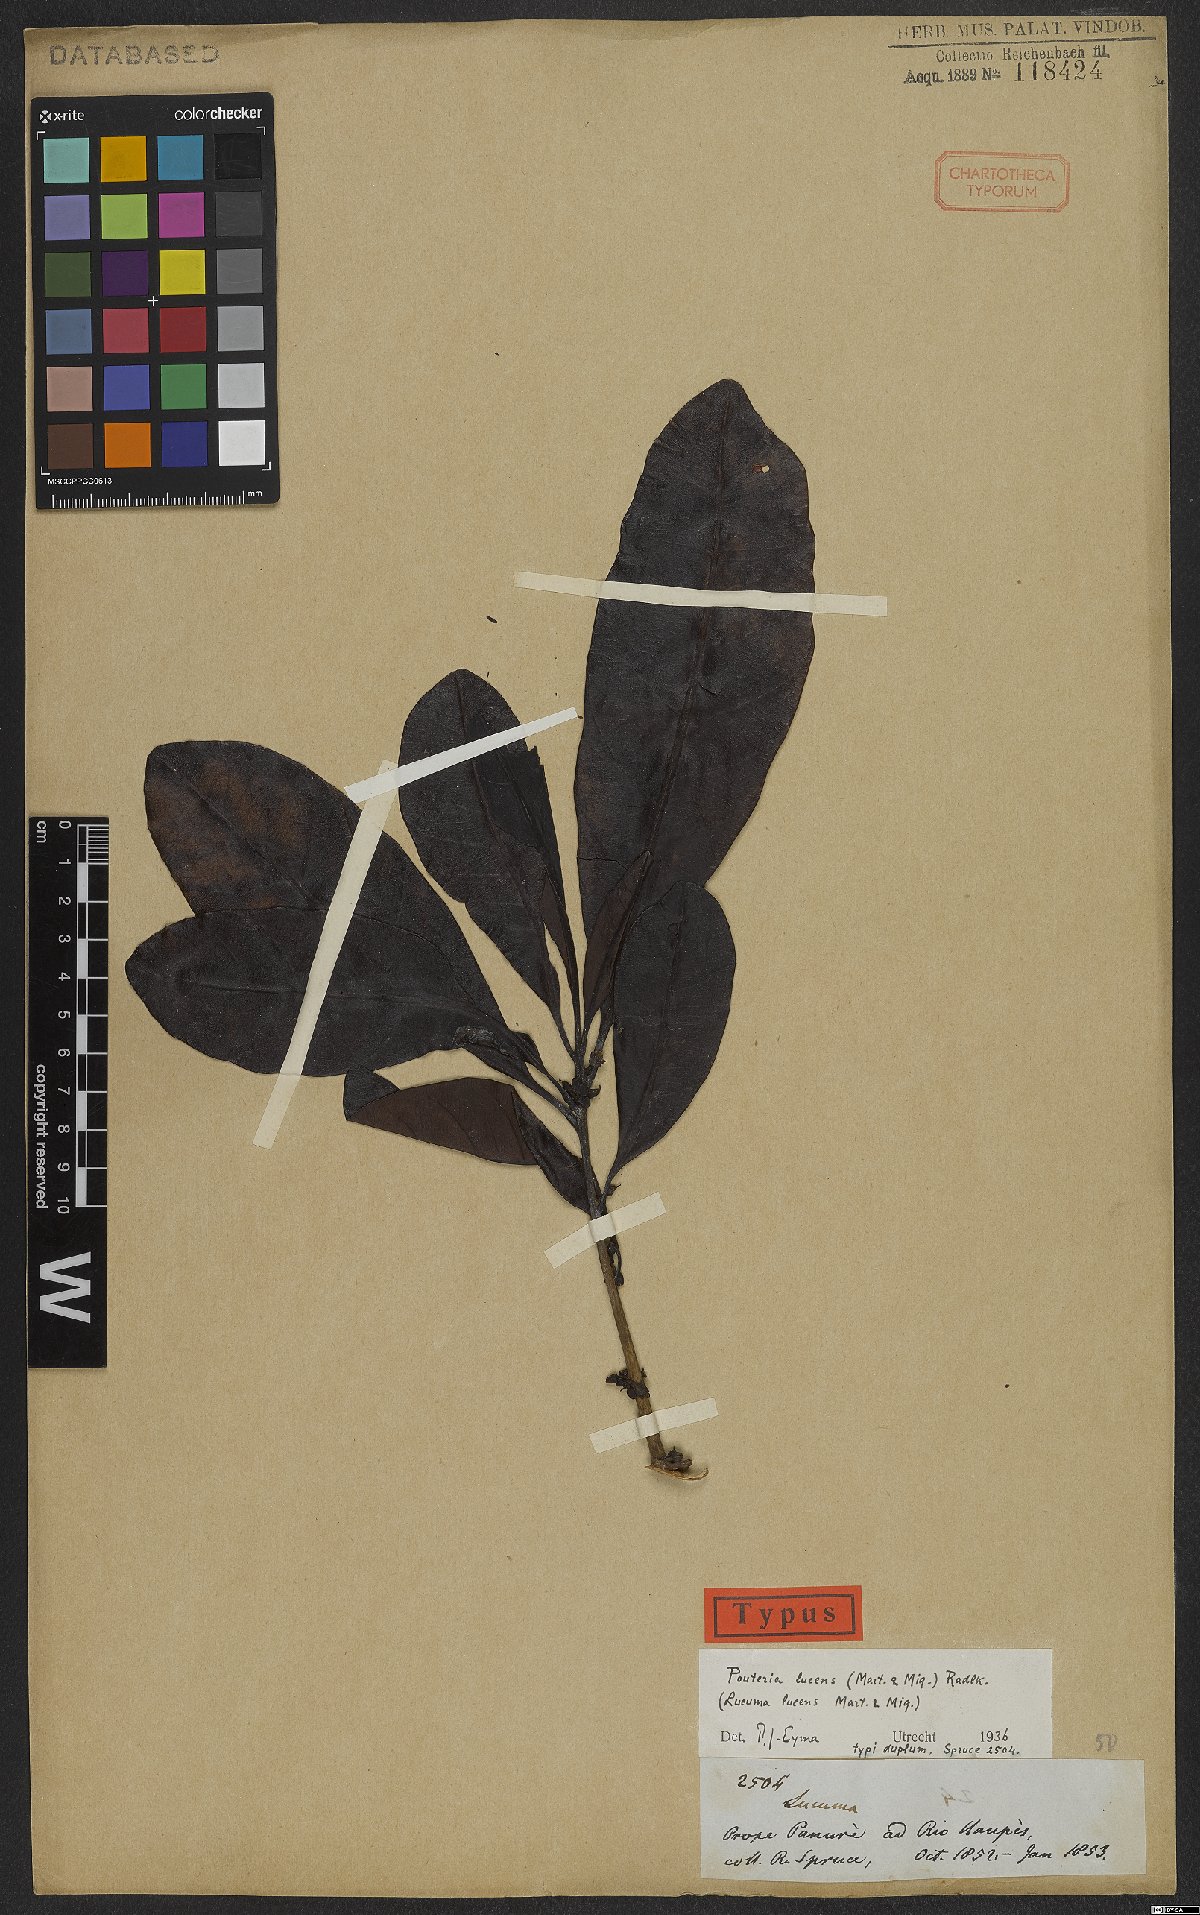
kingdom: Plantae
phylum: Tracheophyta
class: Magnoliopsida
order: Ericales
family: Sapotaceae
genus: Pouteria
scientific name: Pouteria lucens
